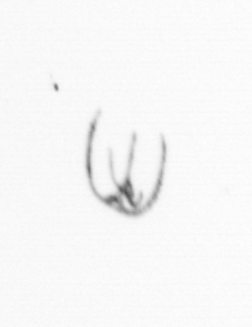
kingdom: Chromista
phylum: Myzozoa
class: Dinophyceae
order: Gonyaulacales
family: Ceratiaceae
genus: Ceratium
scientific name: Ceratium
